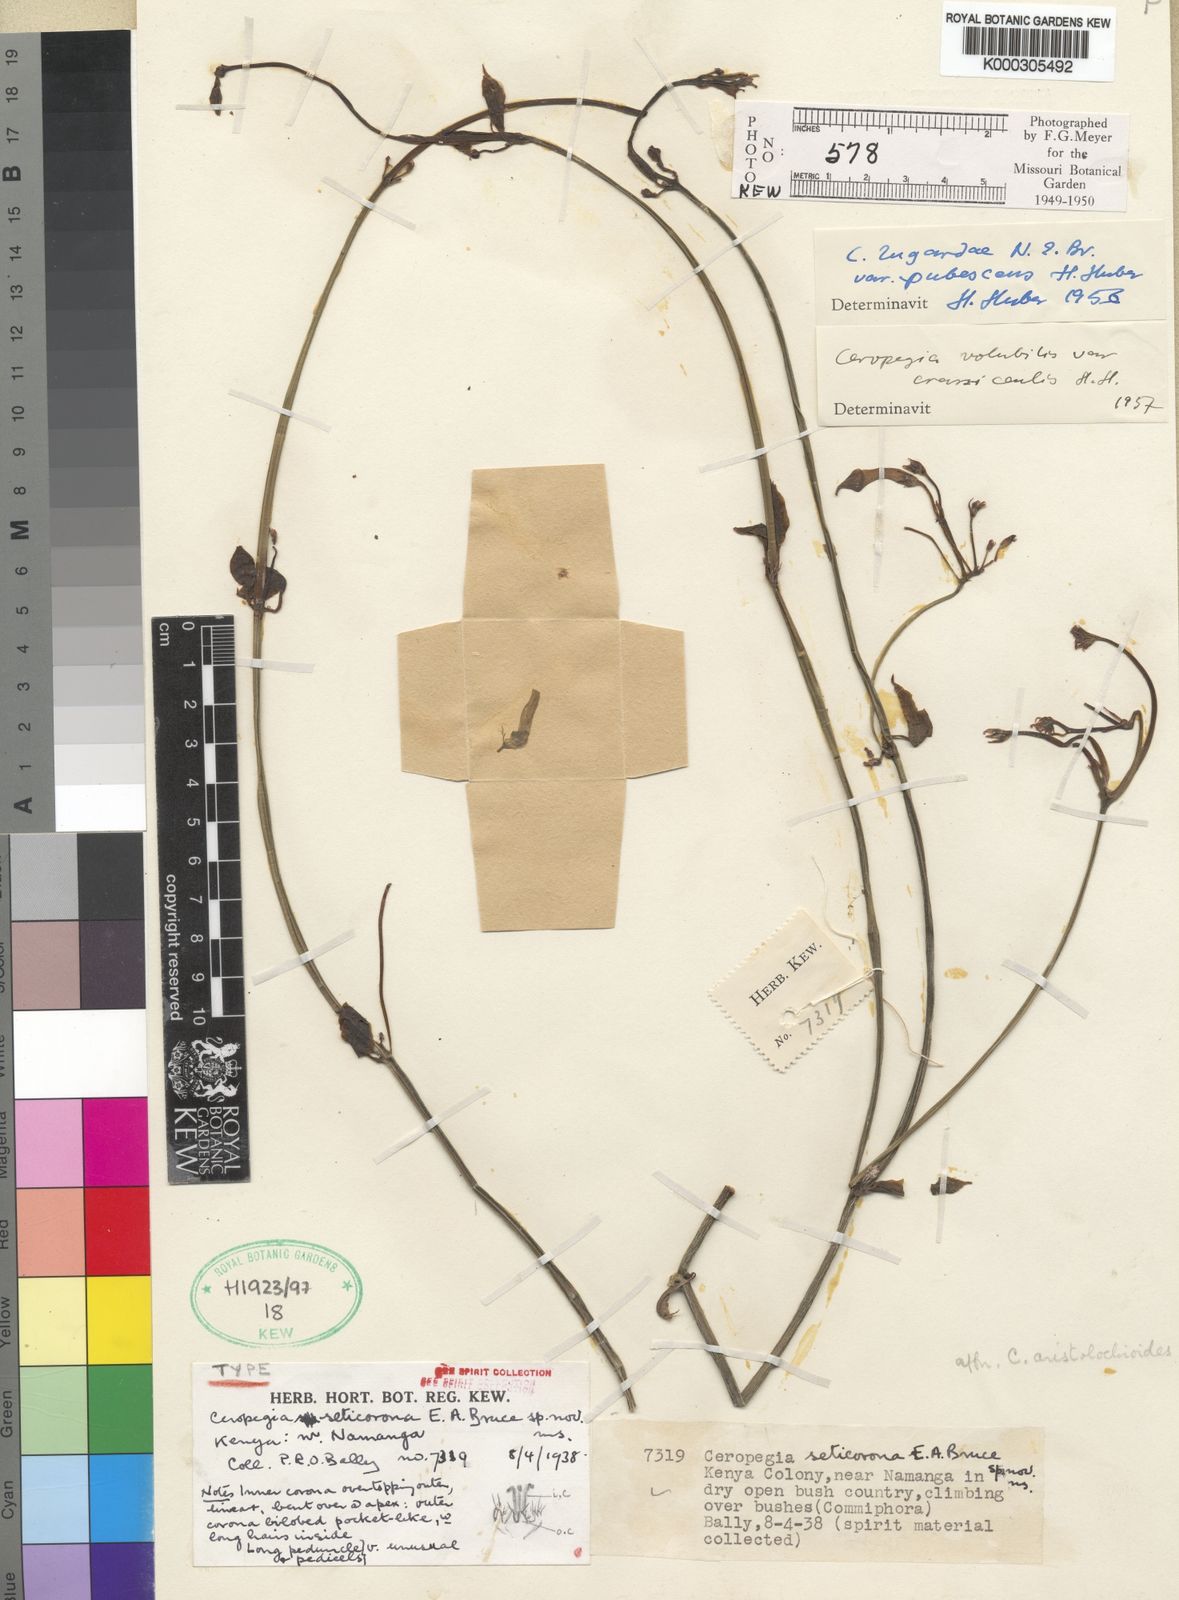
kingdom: Plantae
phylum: Tracheophyta
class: Magnoliopsida
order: Gentianales
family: Apocynaceae
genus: Ceropegia
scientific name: Ceropegia aristolochioides
